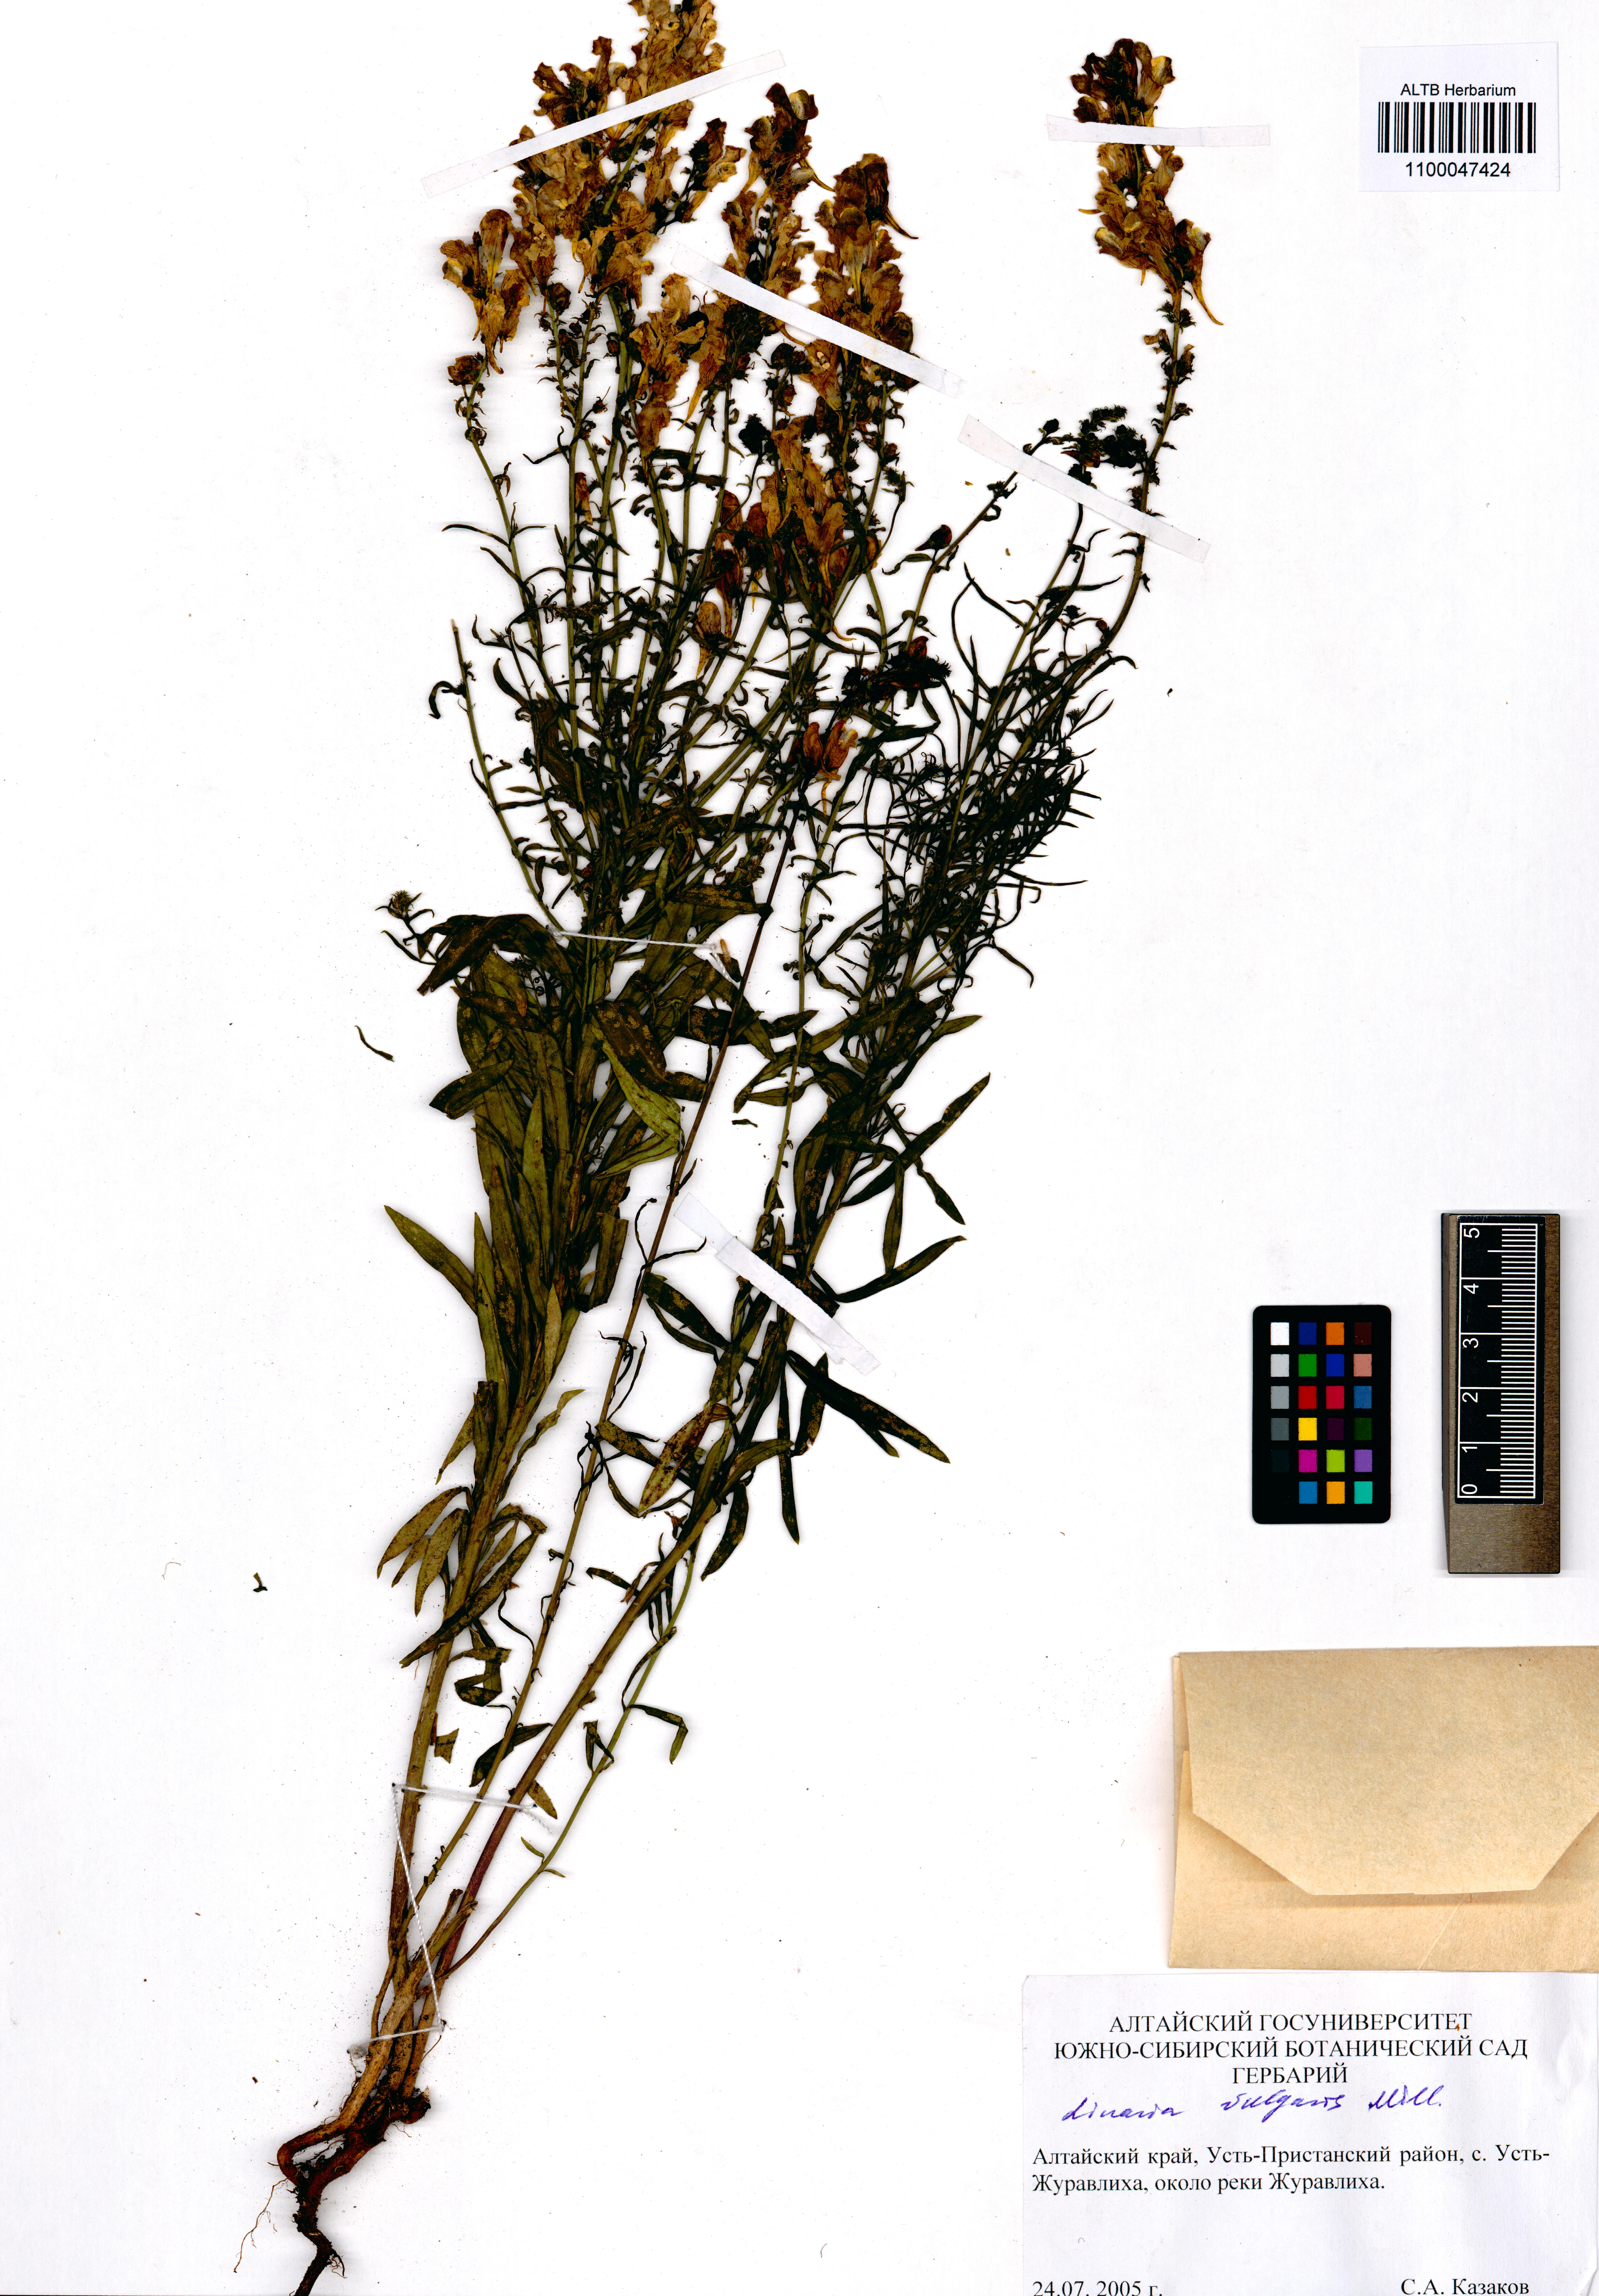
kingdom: Plantae
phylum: Tracheophyta
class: Magnoliopsida
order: Lamiales
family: Plantaginaceae
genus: Linaria
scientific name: Linaria vulgaris
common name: Butter and eggs
